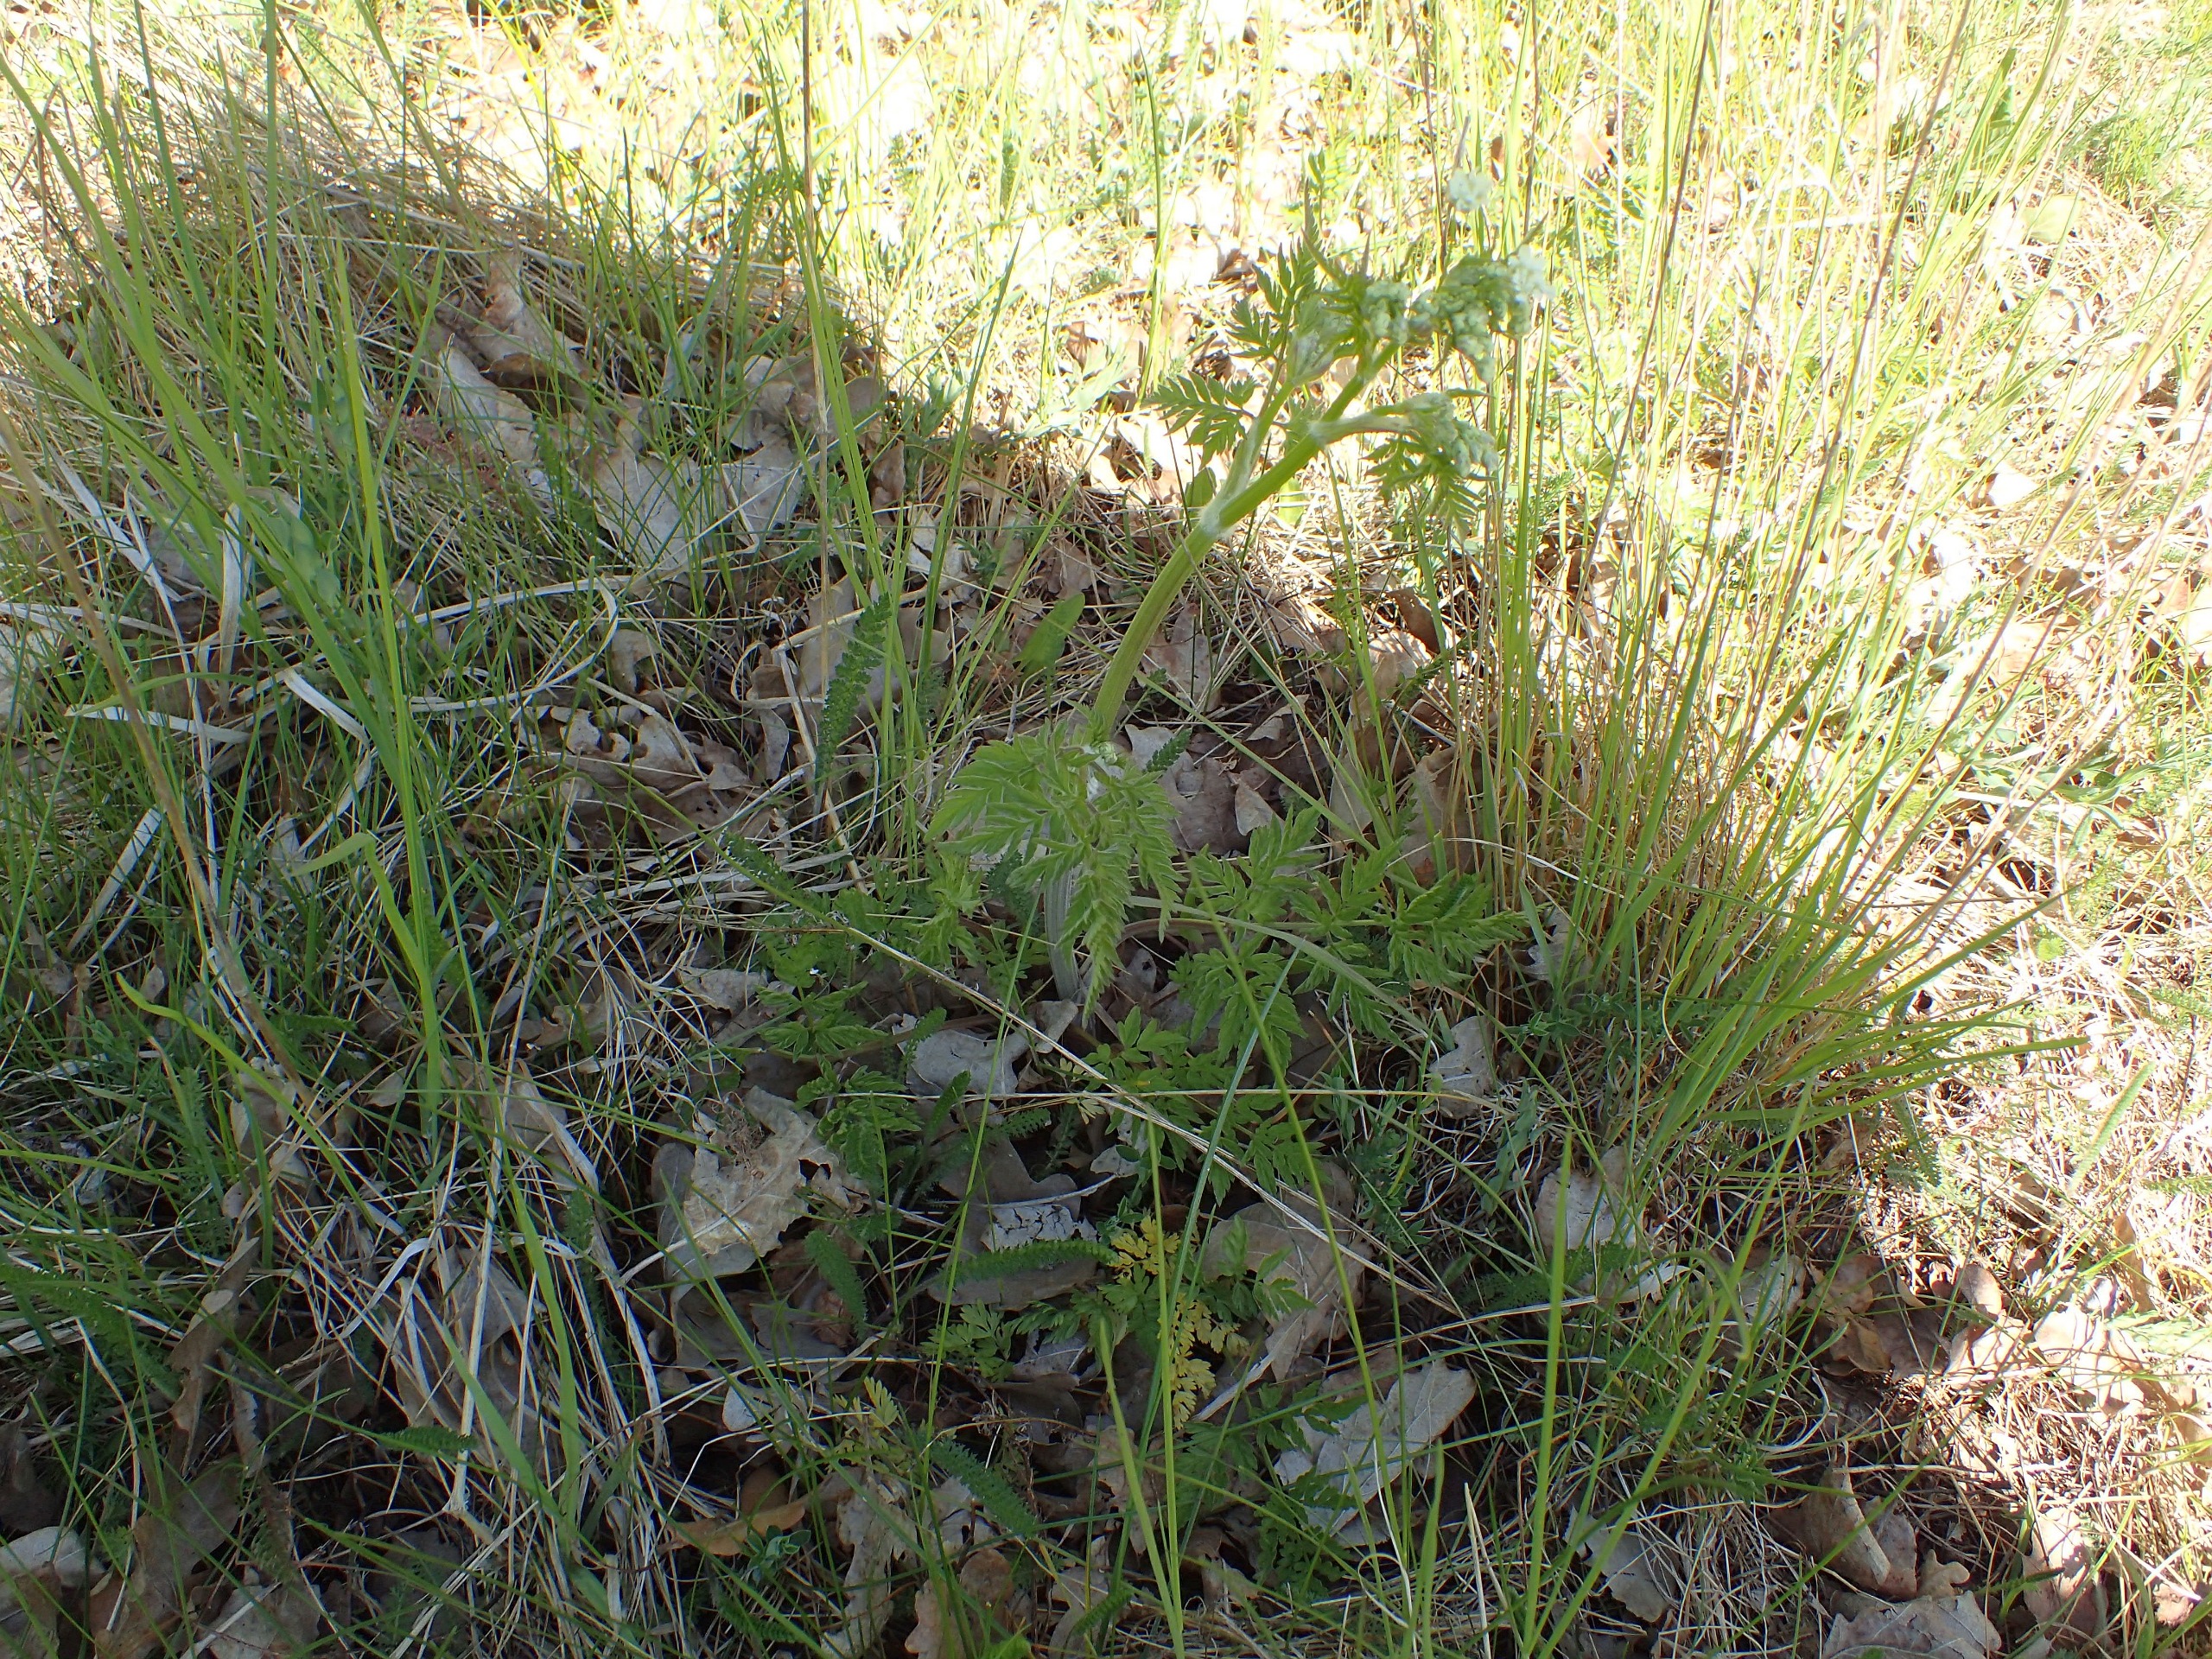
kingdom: Plantae
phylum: Tracheophyta
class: Magnoliopsida
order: Apiales
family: Apiaceae
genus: Anthriscus
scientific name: Anthriscus sylvestris
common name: Vild kørvel
